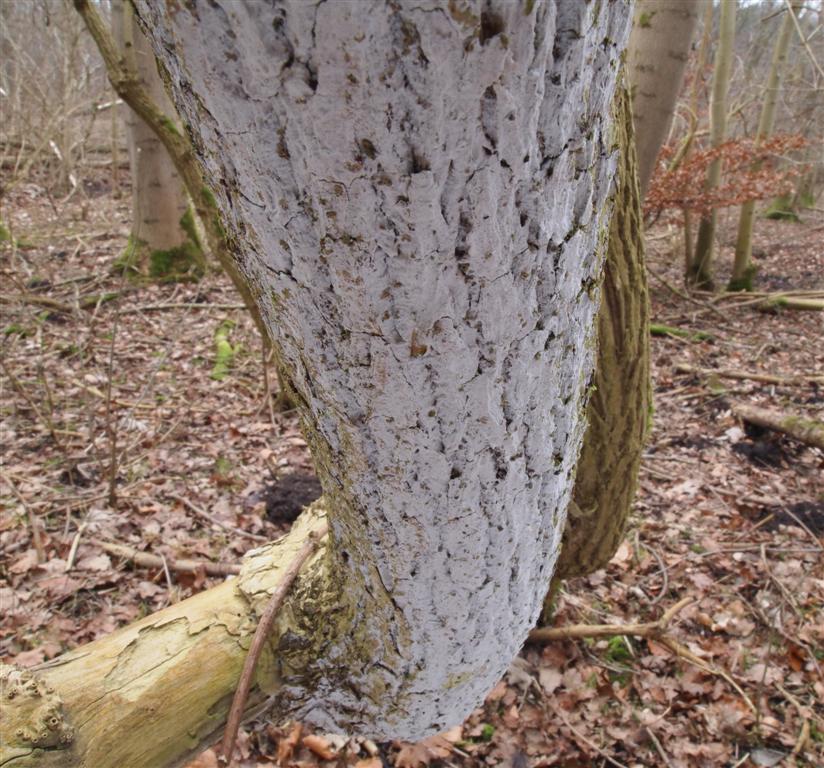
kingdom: Fungi
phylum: Basidiomycota
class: Agaricomycetes
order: Corticiales
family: Corticiaceae
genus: Lyomyces
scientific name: Lyomyces sambuci
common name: almindelig hyldehinde
